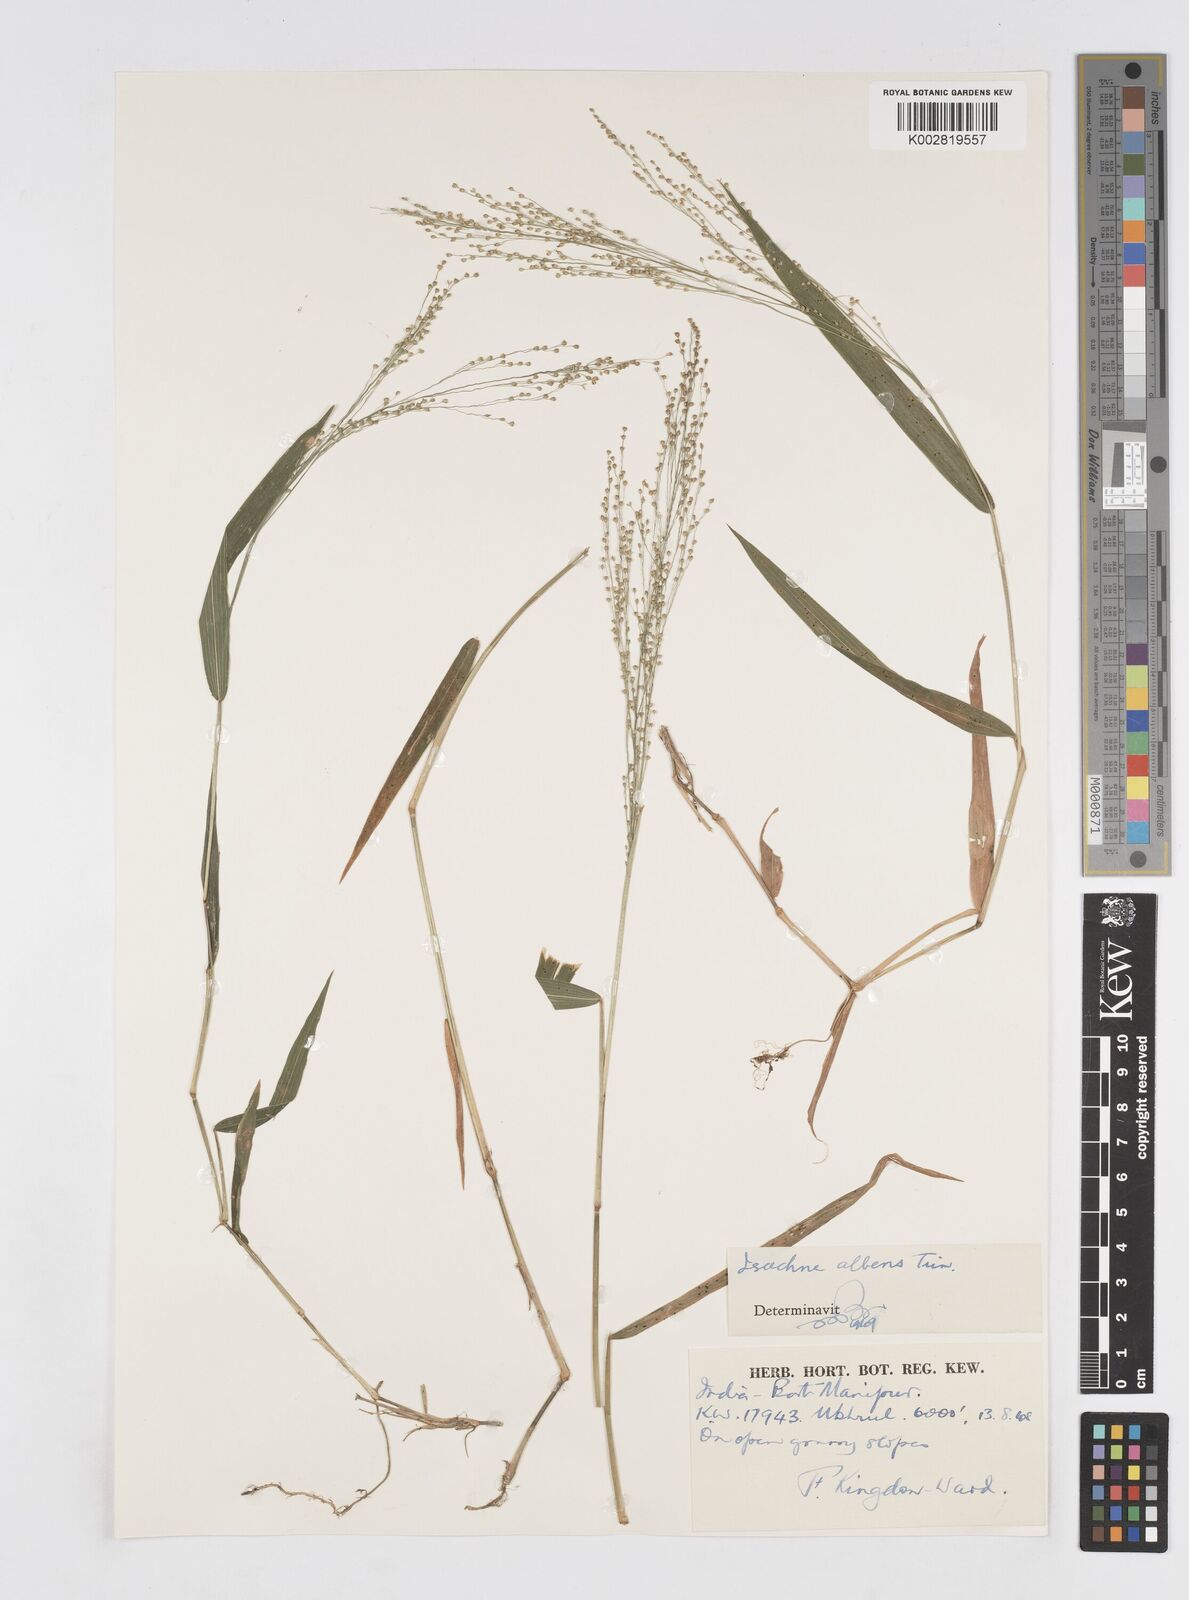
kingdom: Plantae
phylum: Tracheophyta
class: Liliopsida
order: Poales
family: Poaceae
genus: Isachne
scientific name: Isachne albens
